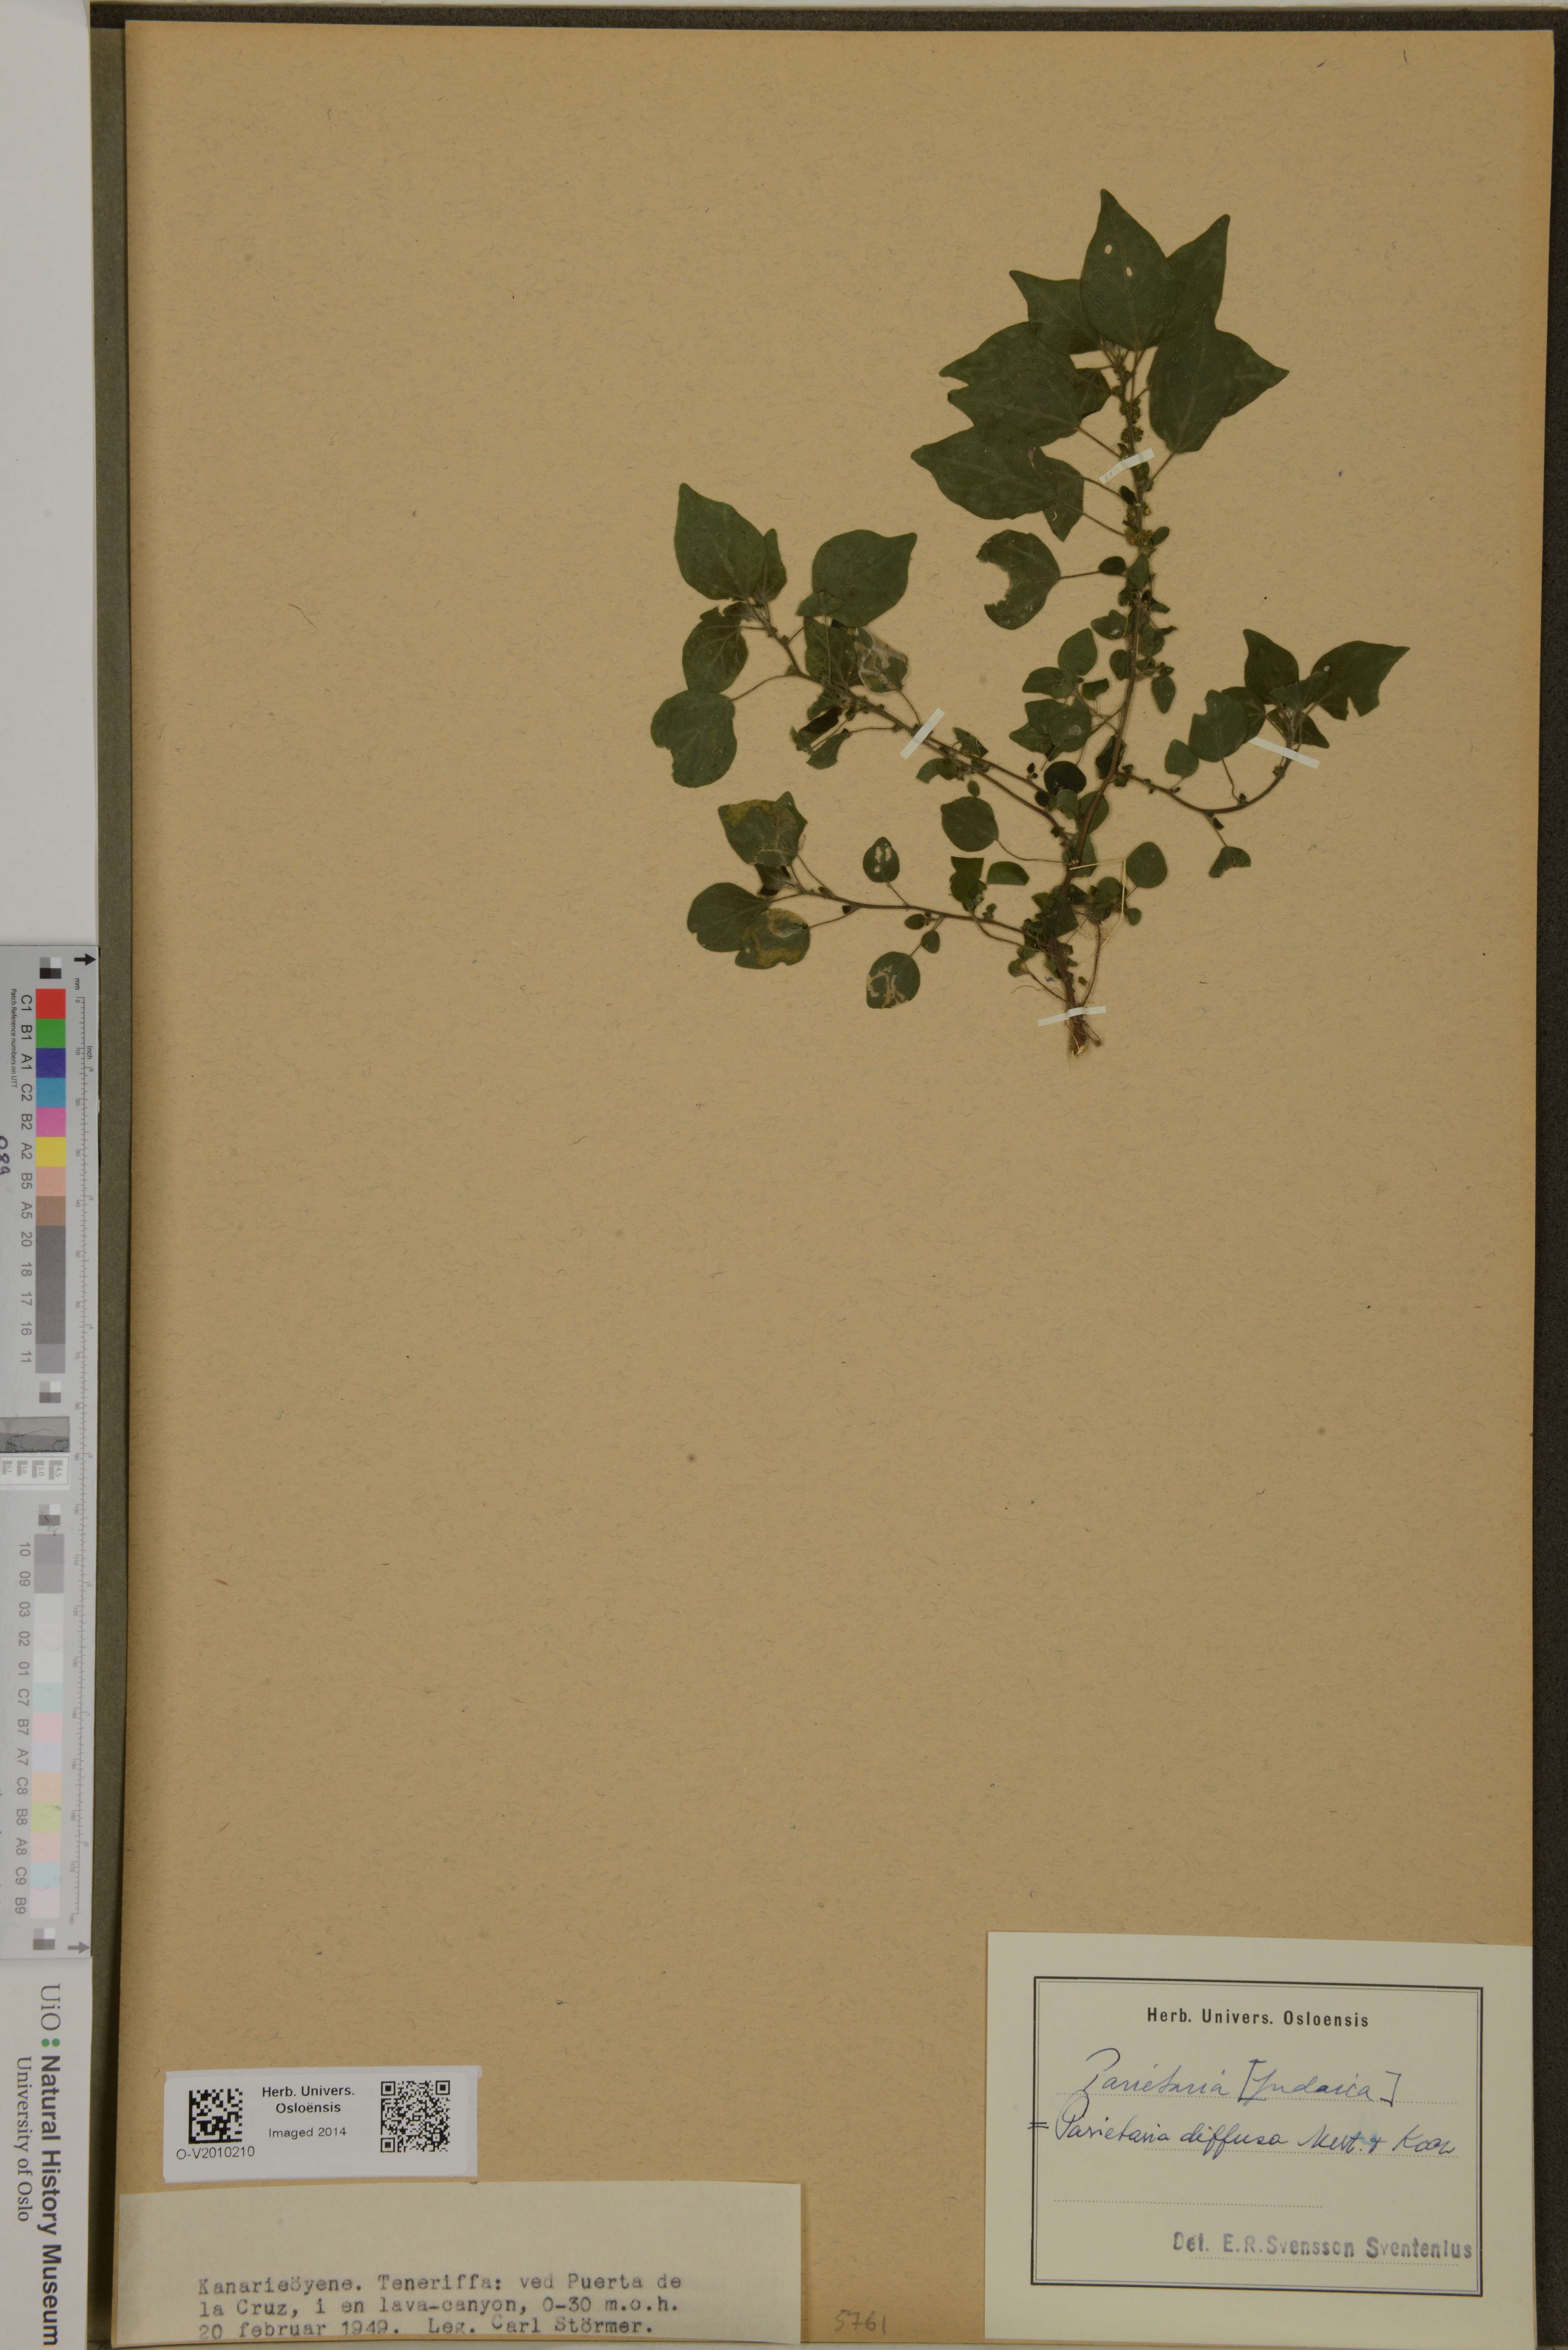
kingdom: Plantae
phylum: Tracheophyta
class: Magnoliopsida
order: Rosales
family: Urticaceae
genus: Parietaria
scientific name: Parietaria judaica
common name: Pellitory-of-the-wall
